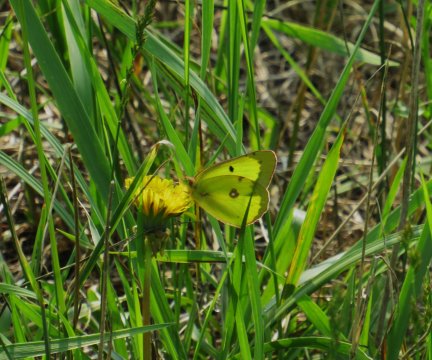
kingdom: Animalia
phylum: Arthropoda
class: Insecta
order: Lepidoptera
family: Pieridae
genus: Colias
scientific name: Colias philodice
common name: Clouded Sulphur
